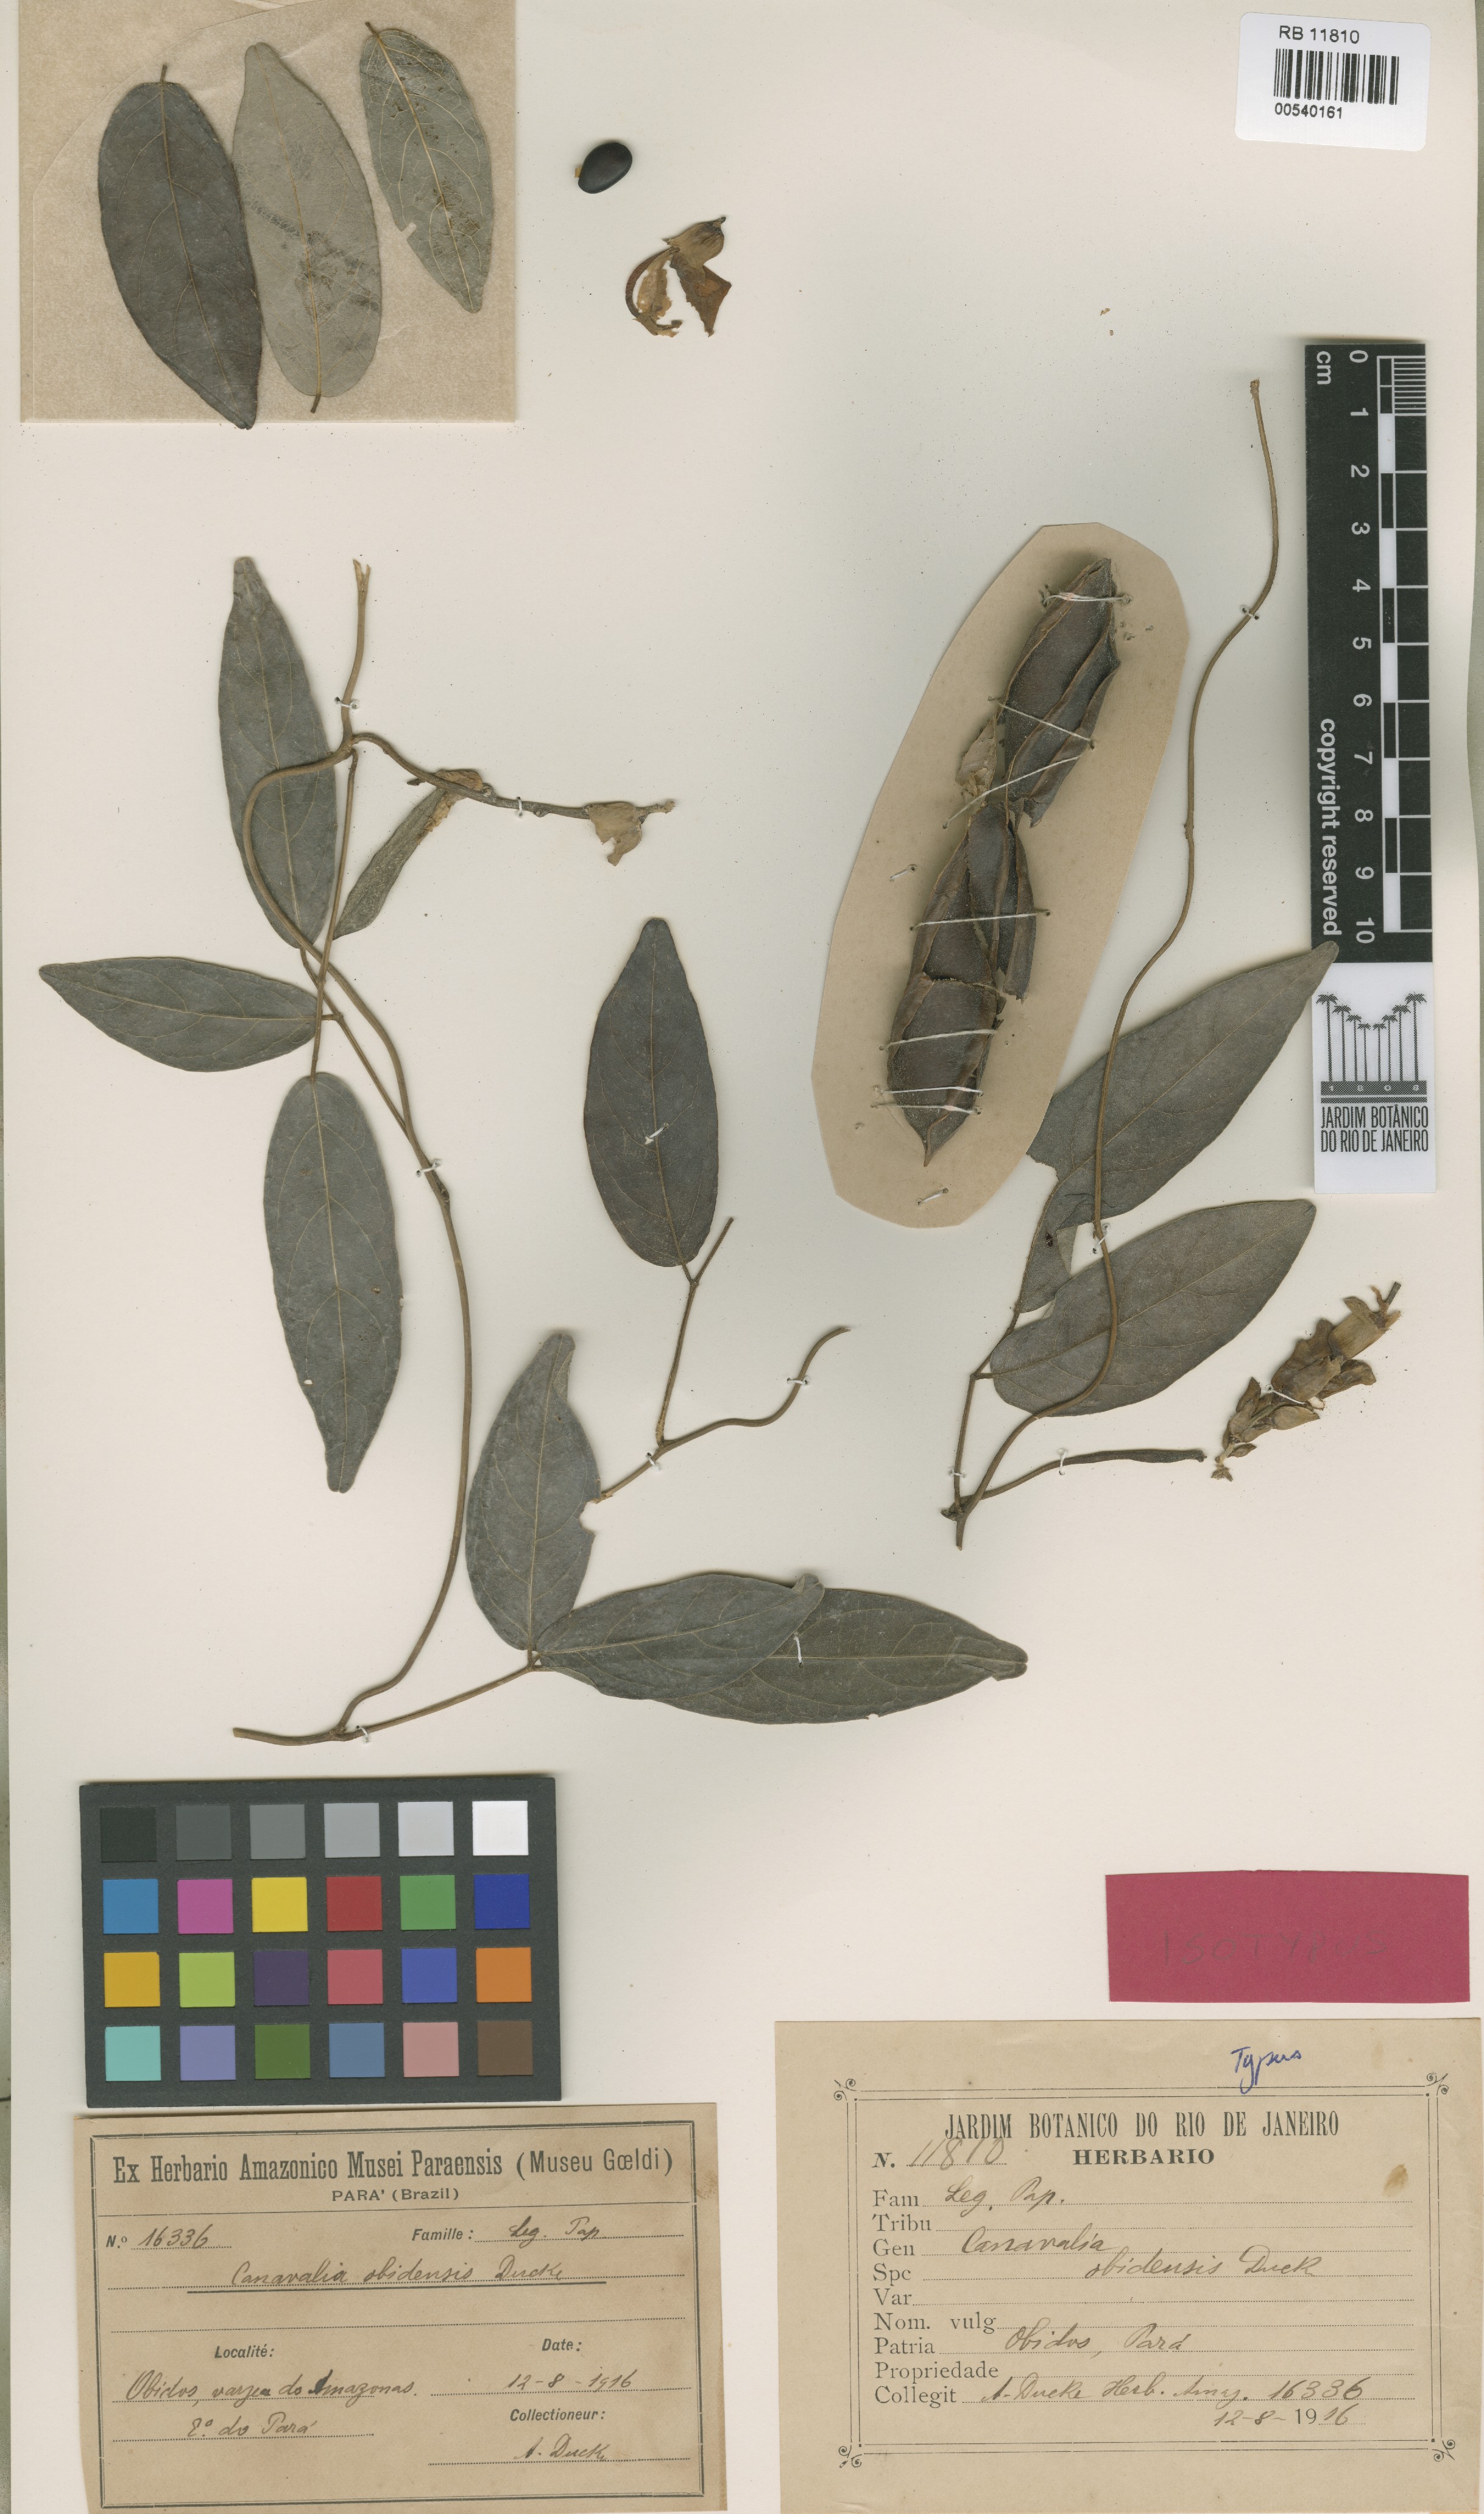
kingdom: Plantae
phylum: Tracheophyta
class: Magnoliopsida
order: Fabales
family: Fabaceae
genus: Canavalia
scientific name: Canavalia obidensis
